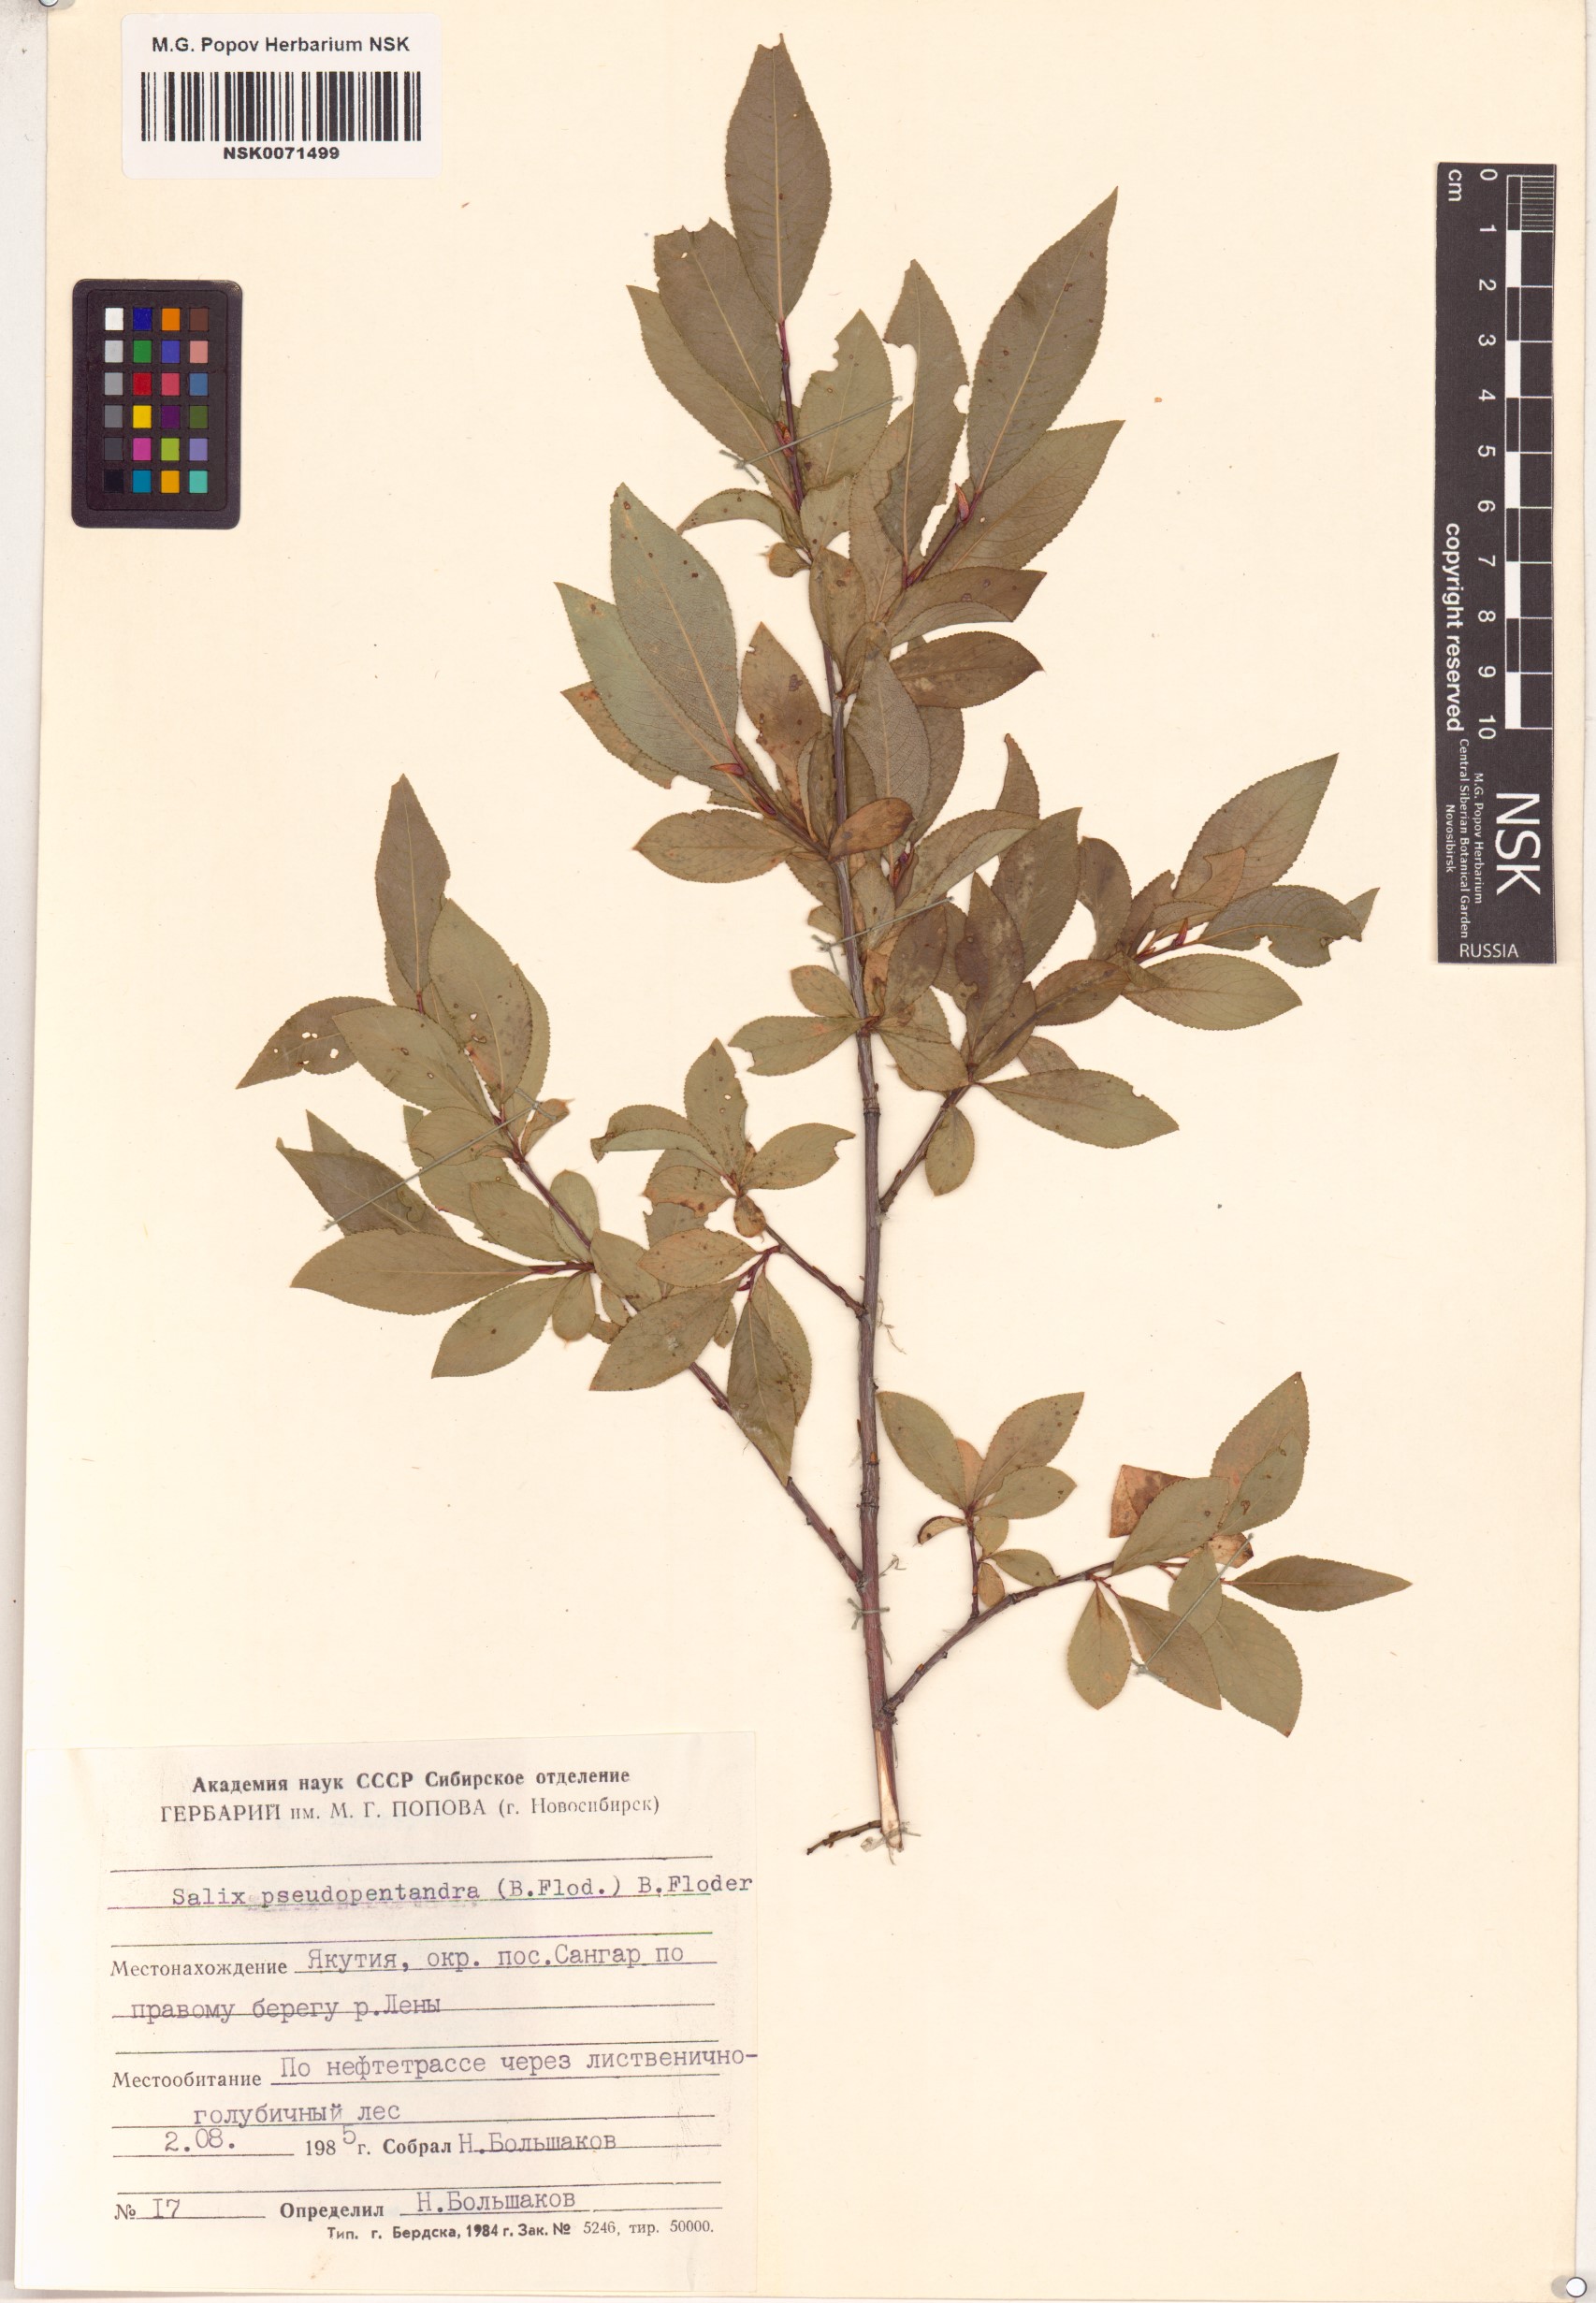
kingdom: Plantae
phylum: Tracheophyta
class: Magnoliopsida
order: Malpighiales
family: Salicaceae
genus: Salix
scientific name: Salix pseudopentandra
